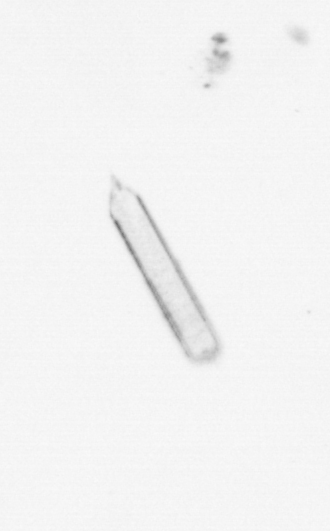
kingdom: Chromista
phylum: Ochrophyta
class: Bacillariophyceae
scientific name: Bacillariophyceae
